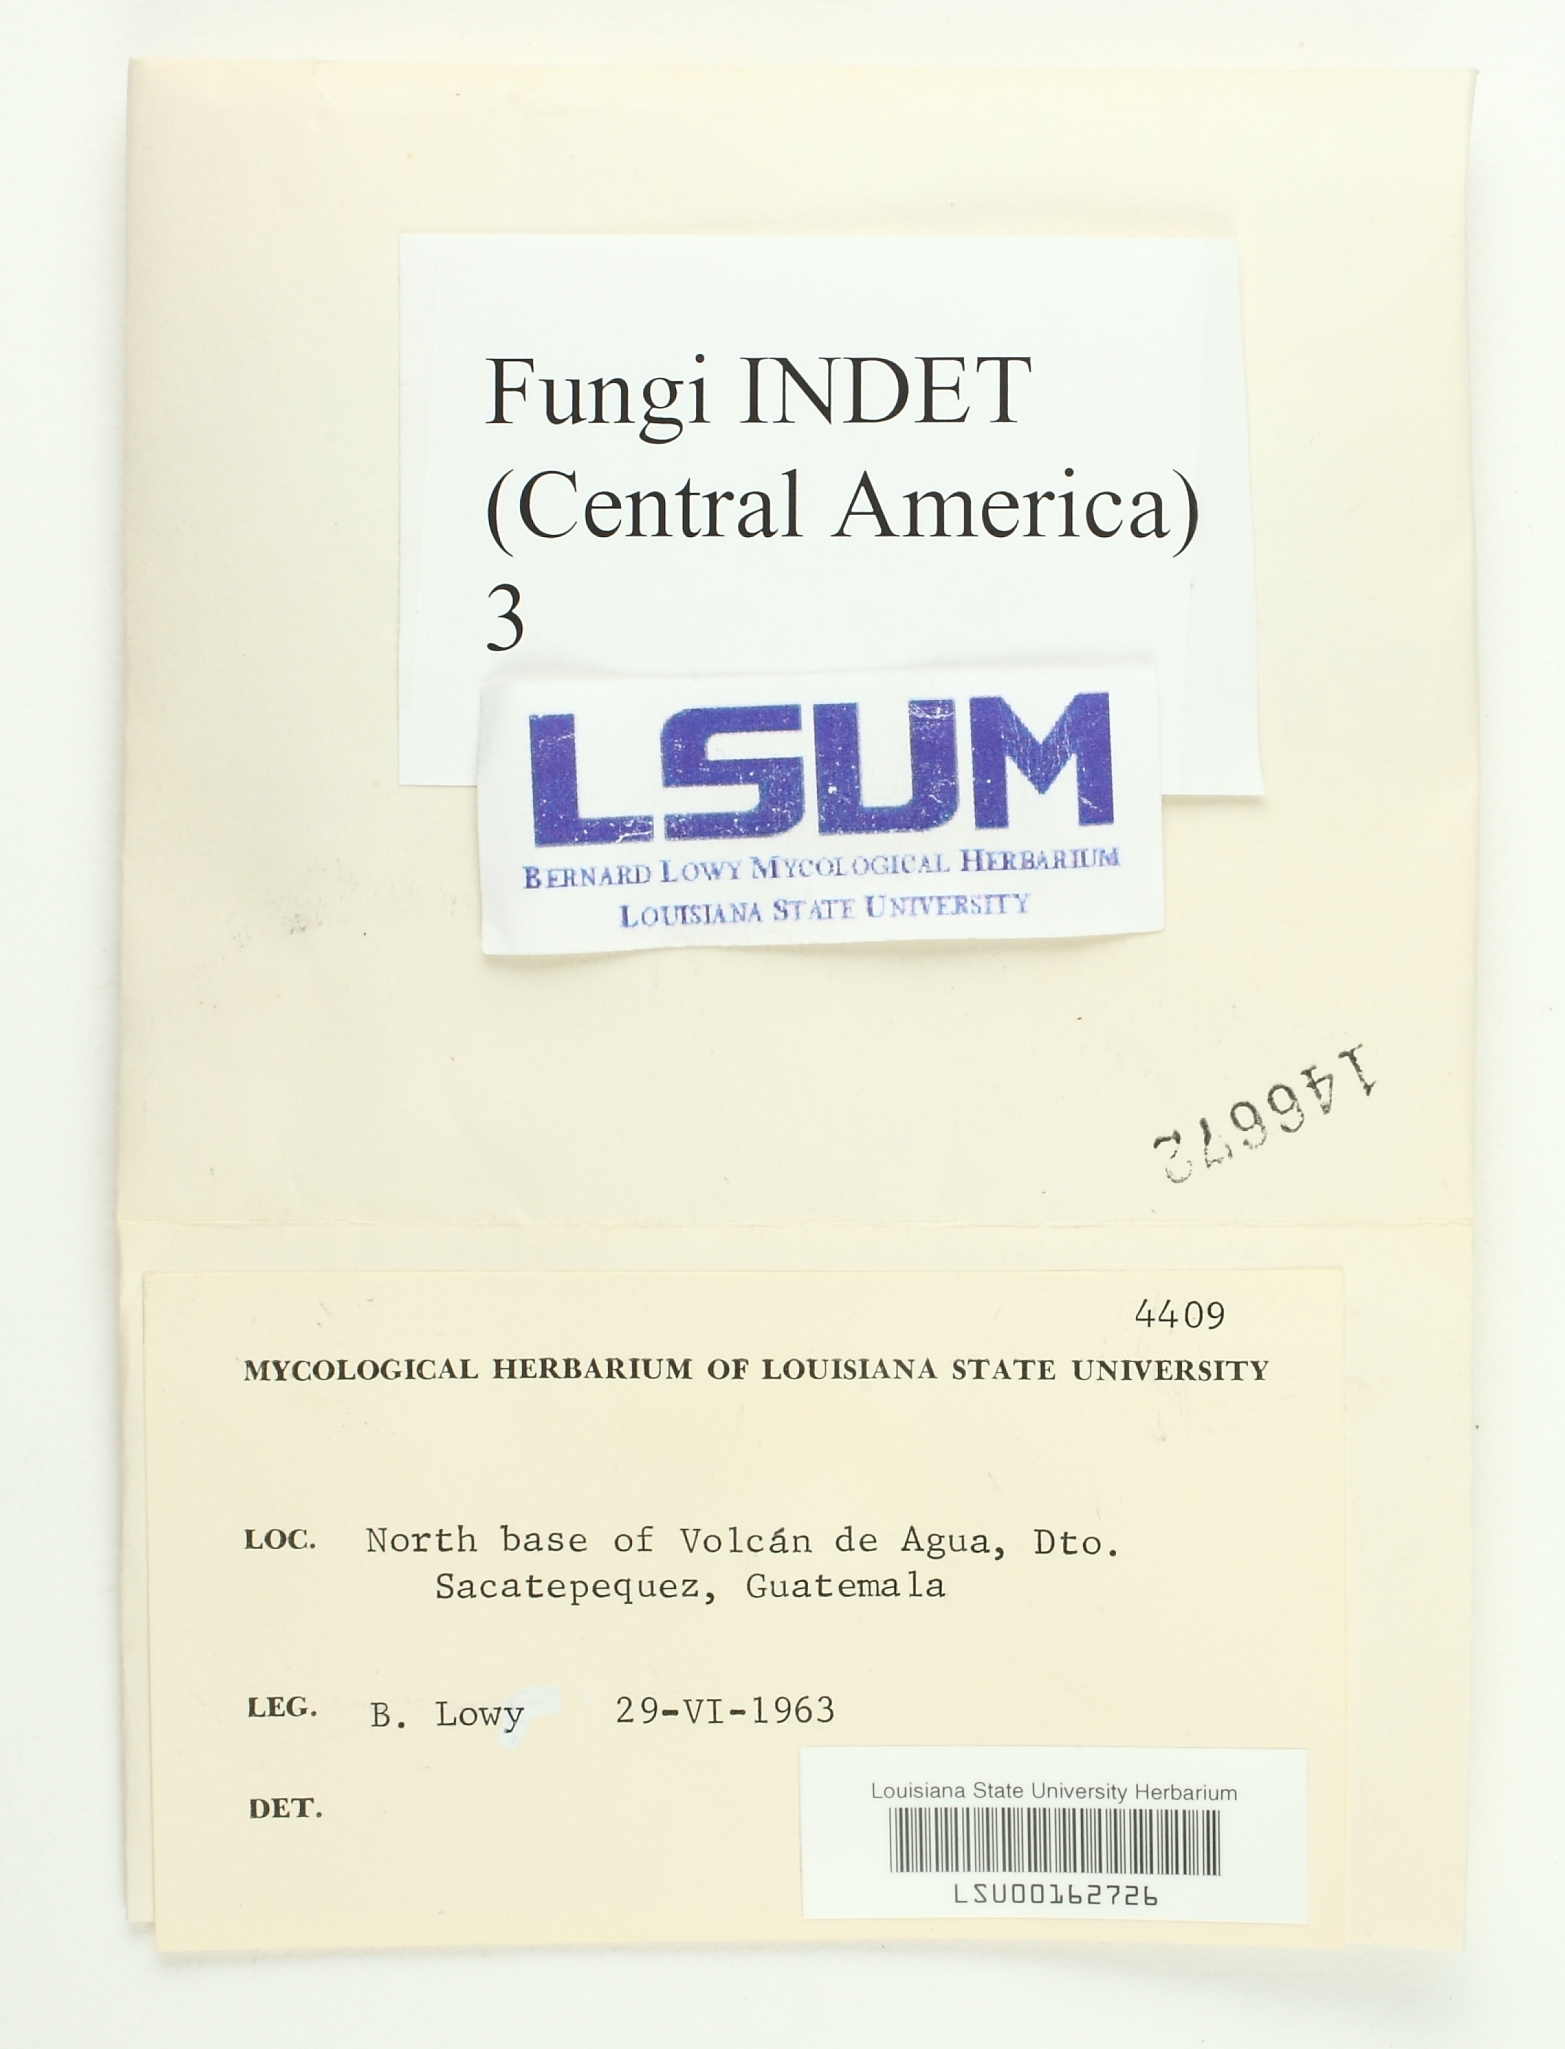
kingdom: Fungi
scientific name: Fungi
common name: Fungi
